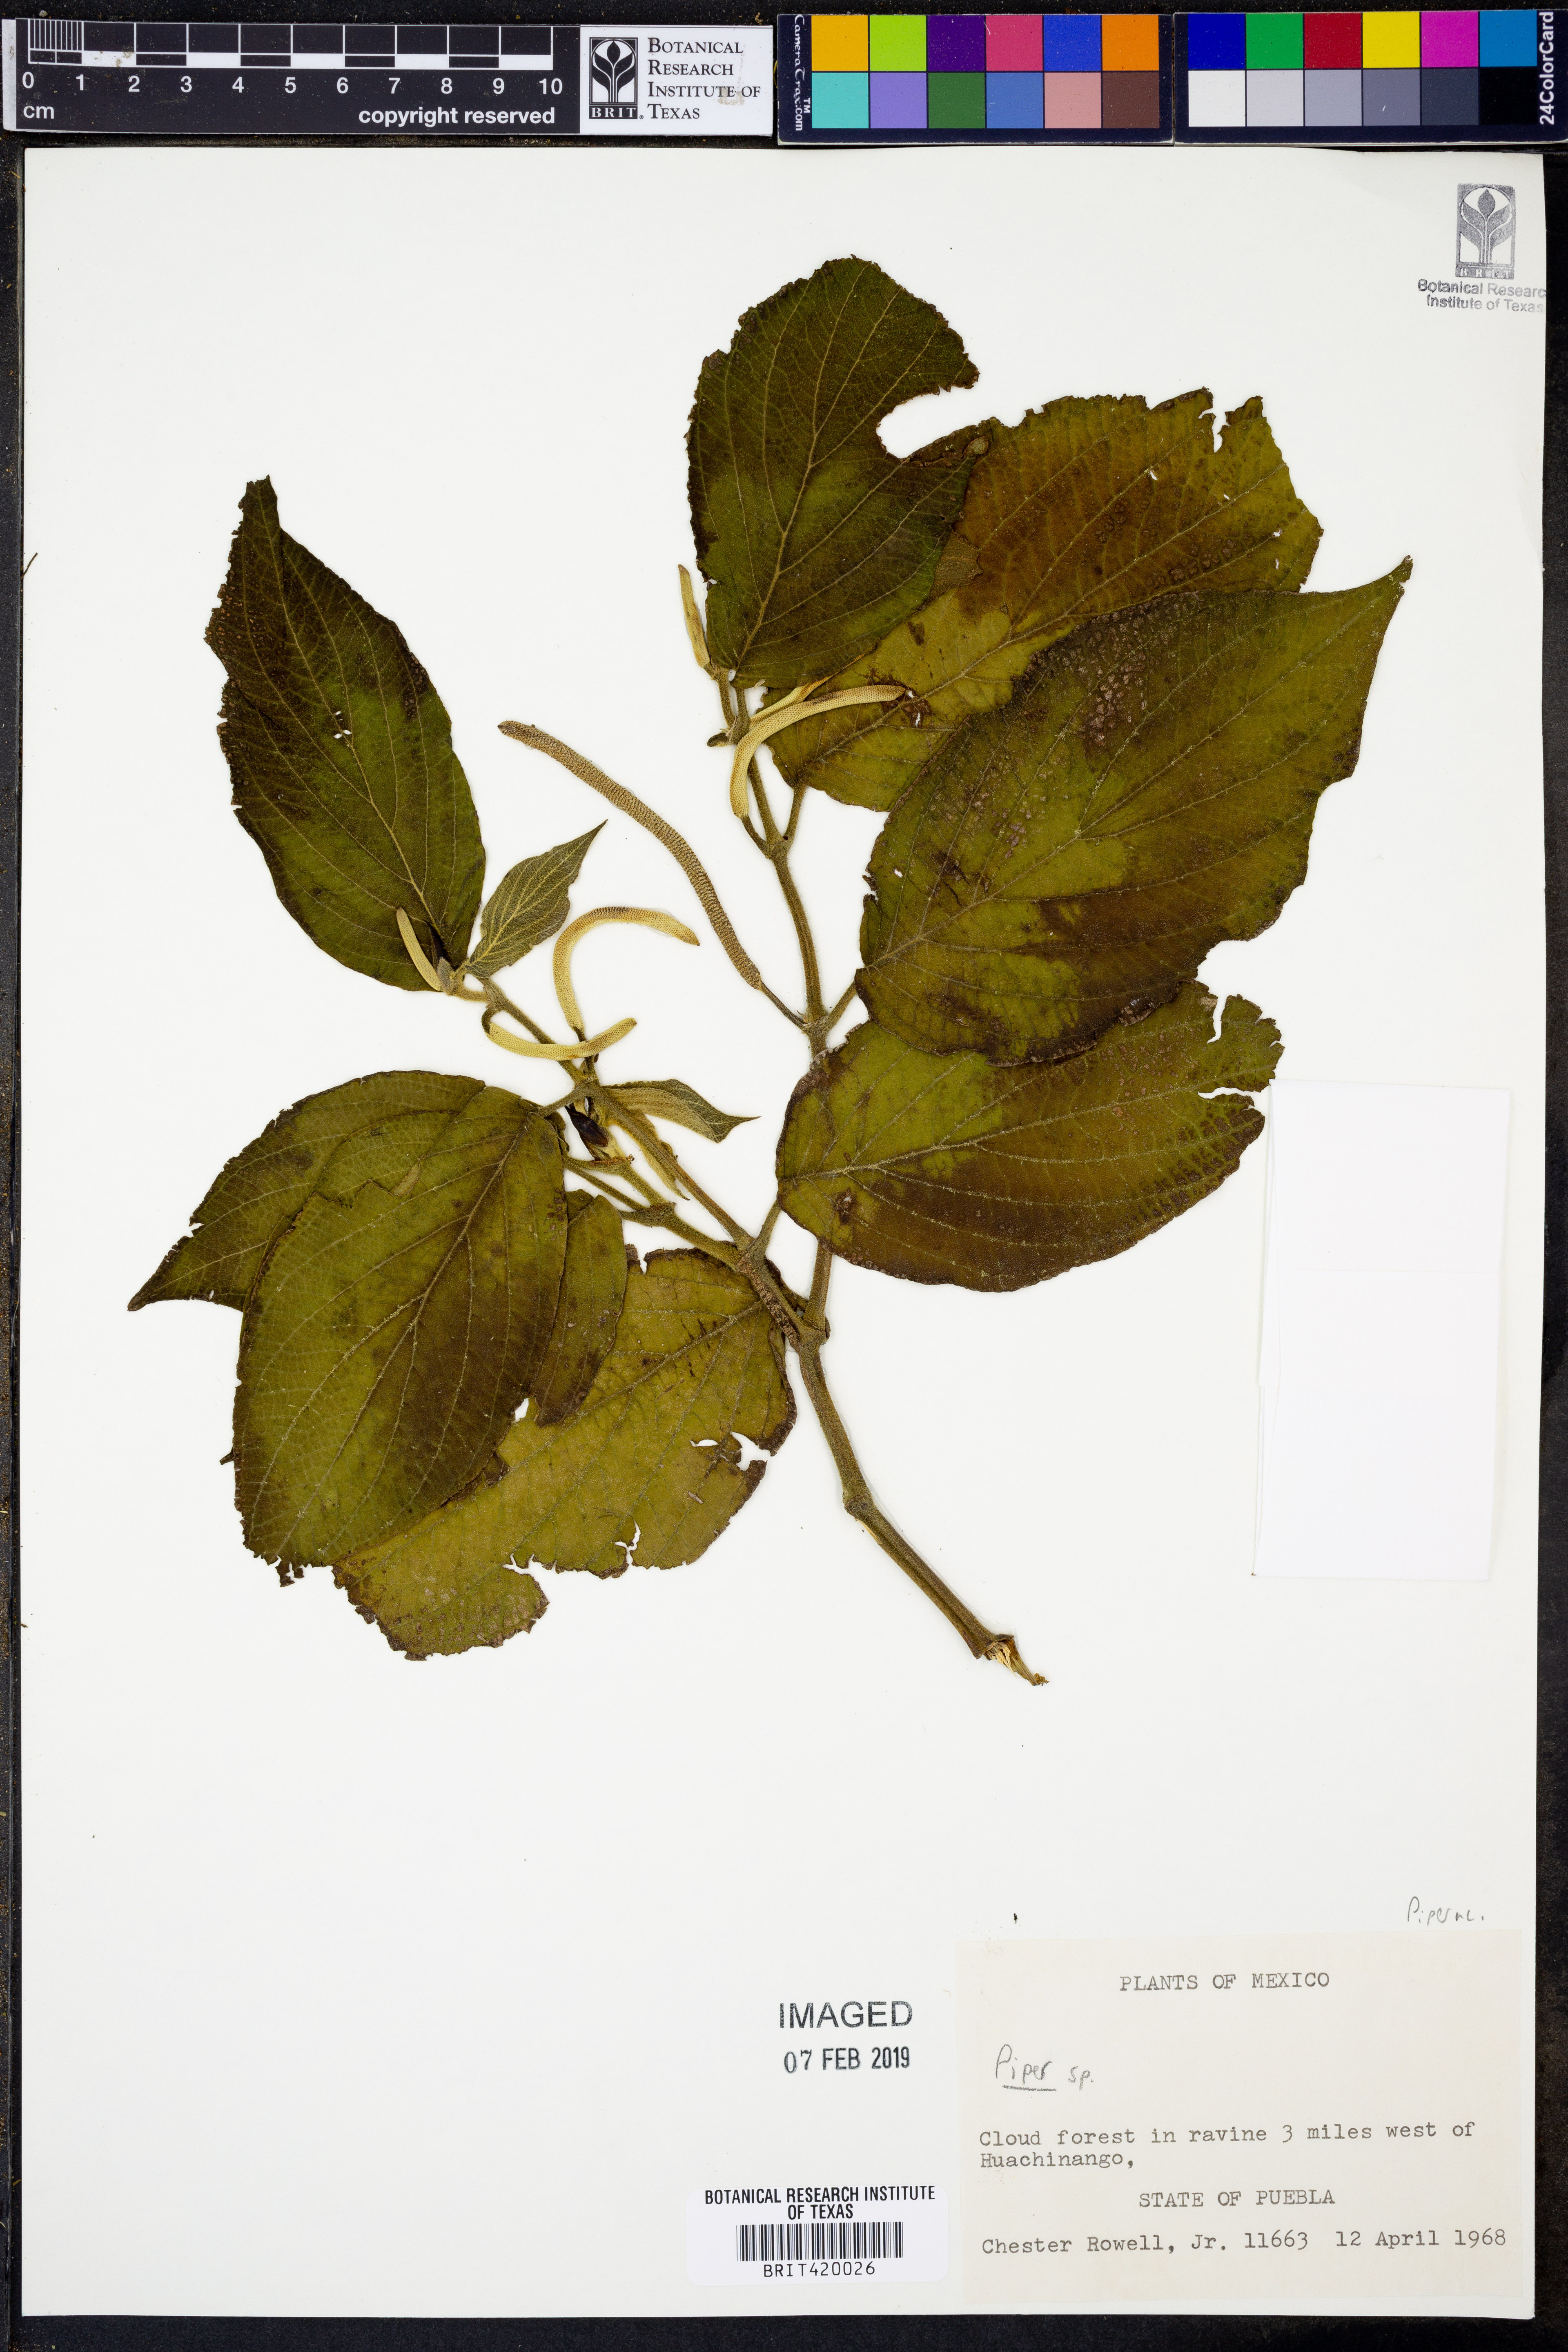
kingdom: Plantae
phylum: Tracheophyta
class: Magnoliopsida
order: Piperales
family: Piperaceae
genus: Piper
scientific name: Piper
